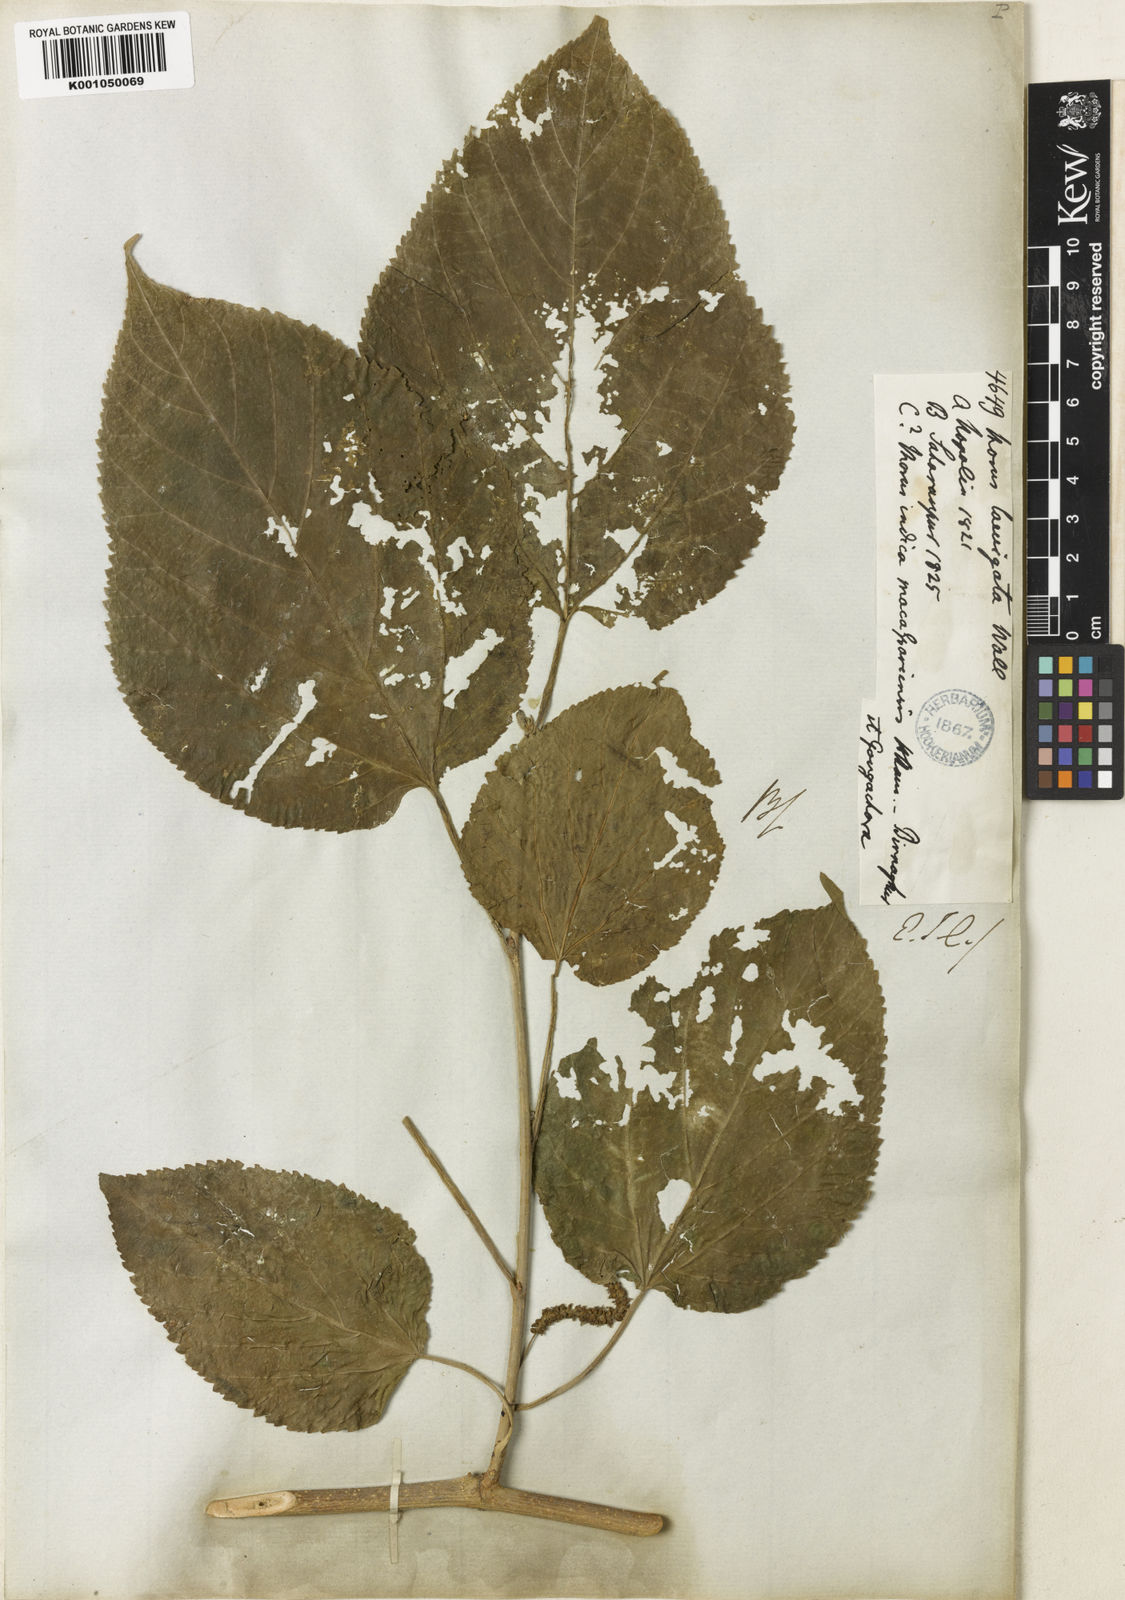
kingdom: Plantae
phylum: Tracheophyta
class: Magnoliopsida
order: Rosales
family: Moraceae
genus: Morus
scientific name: Morus
